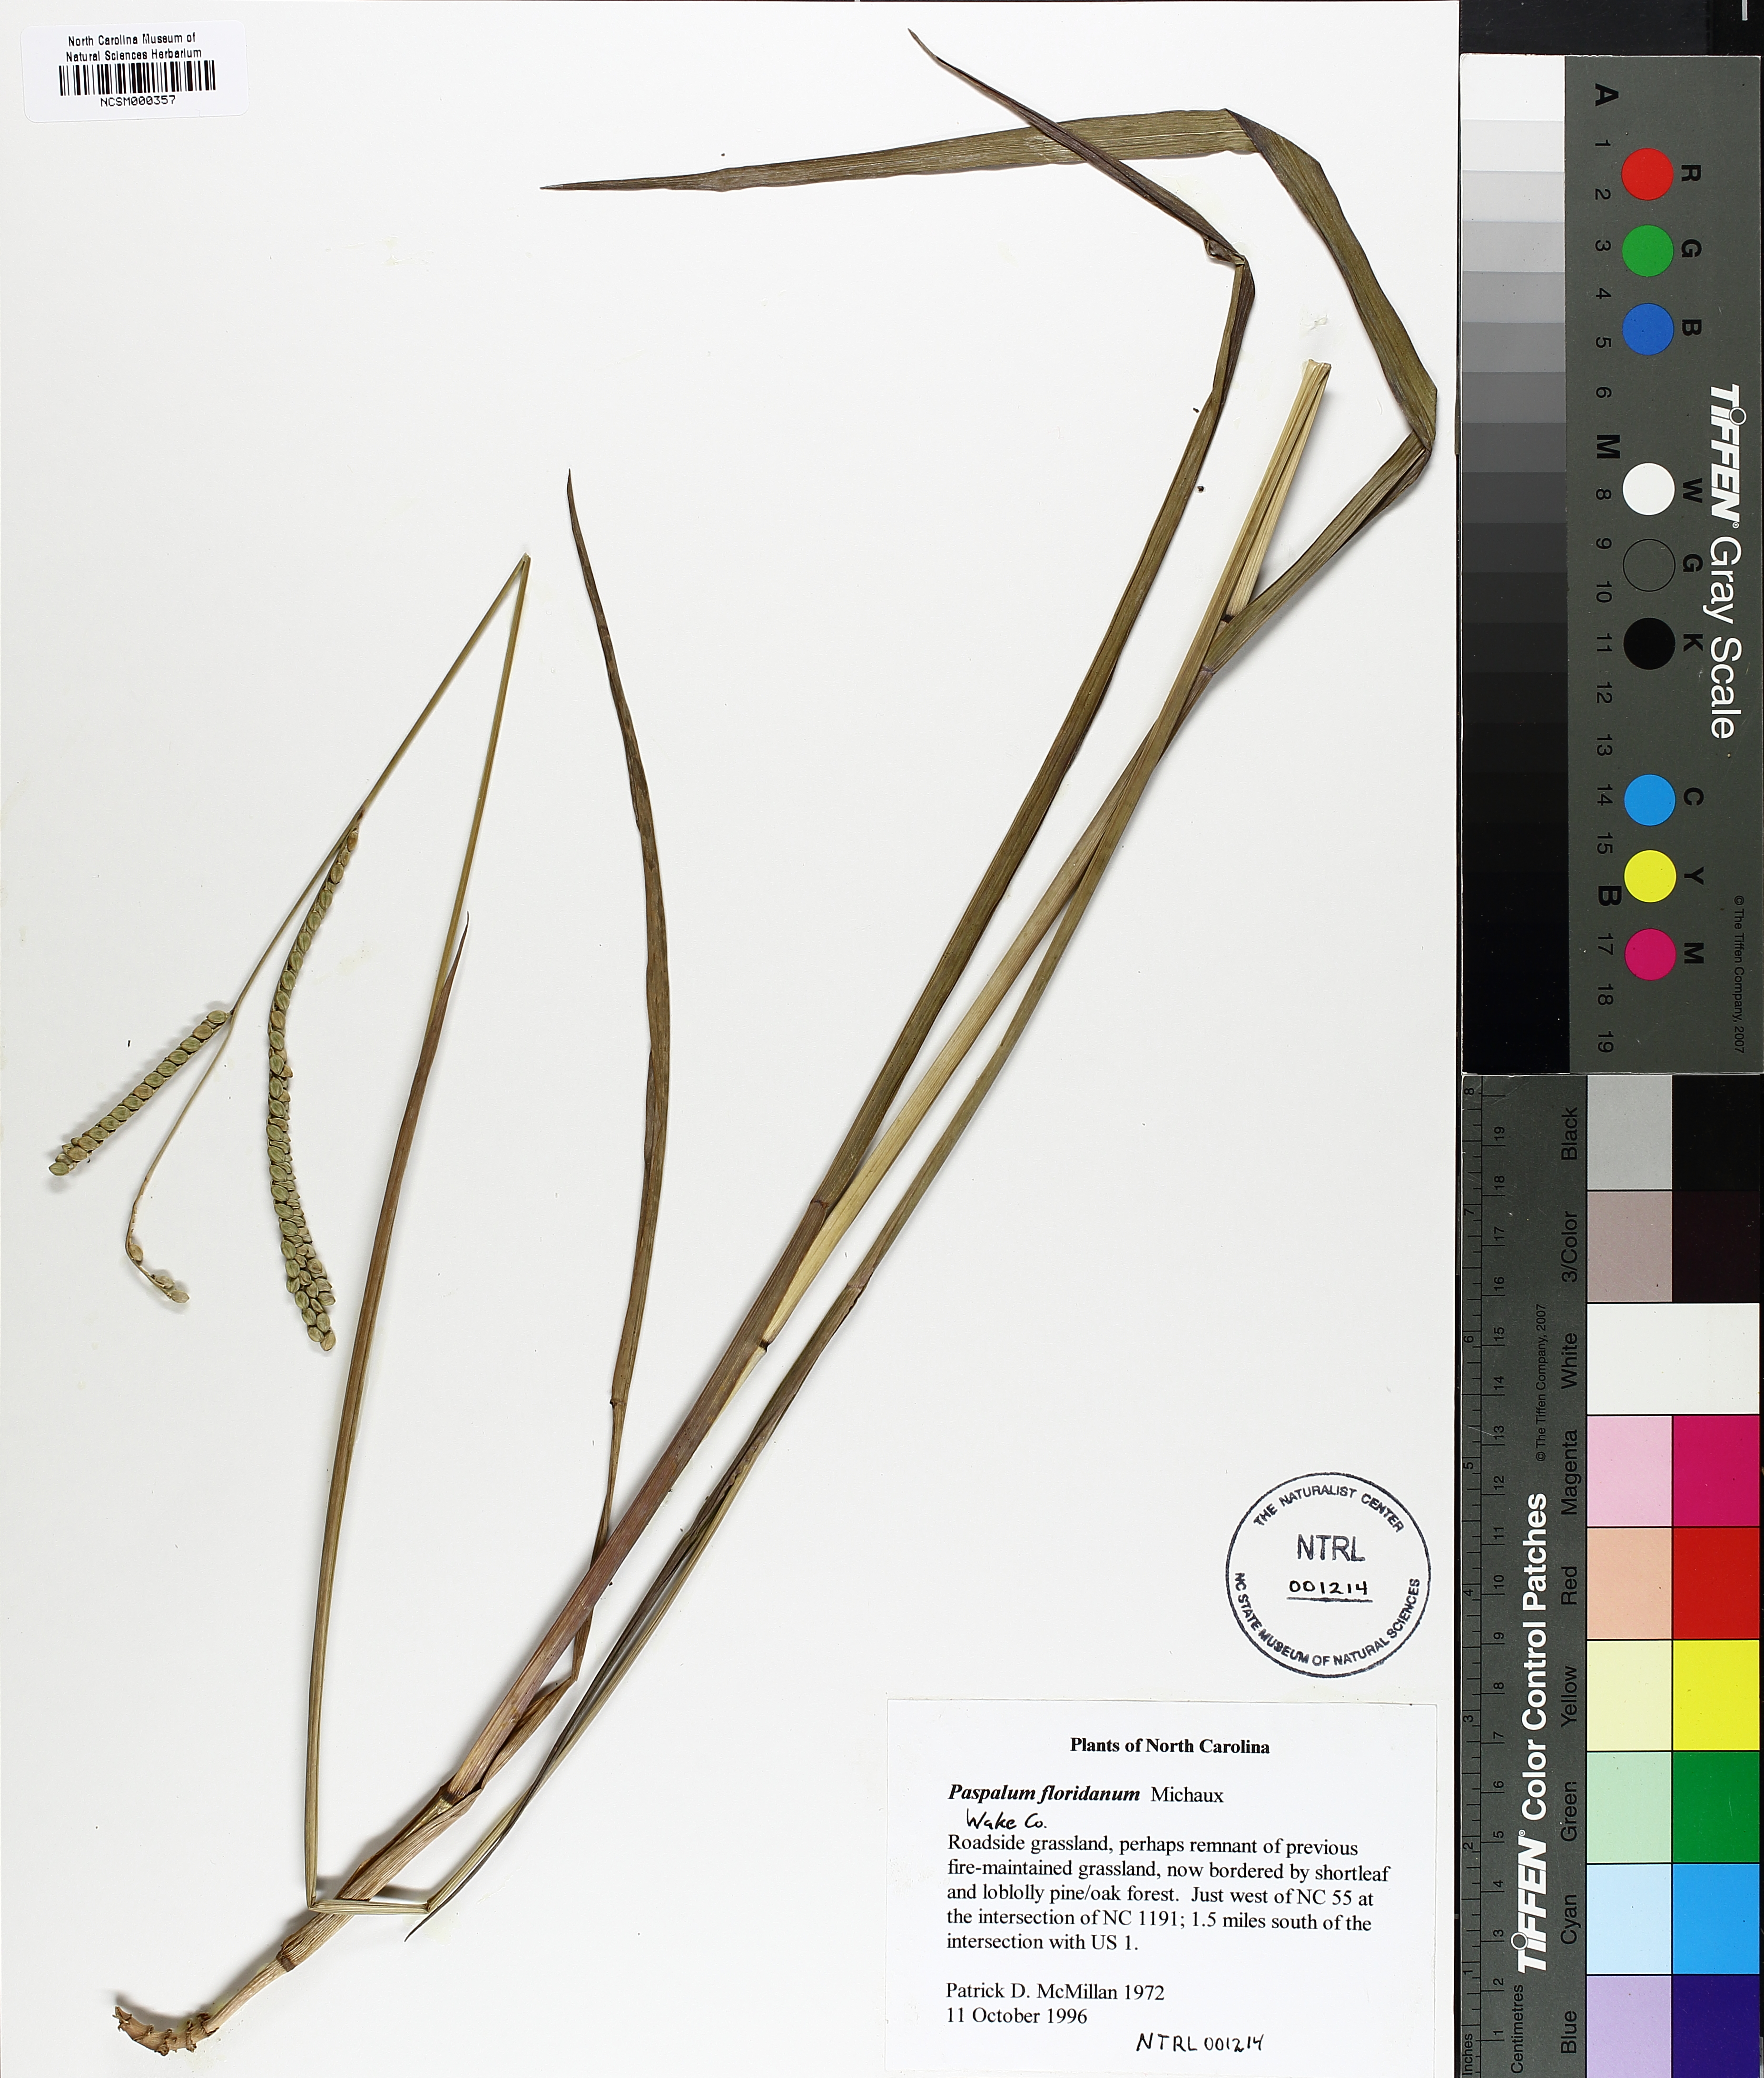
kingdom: Plantae
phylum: Tracheophyta
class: Liliopsida
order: Poales
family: Poaceae
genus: Paspalum
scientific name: Paspalum floridanum
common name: Florida paspalum
